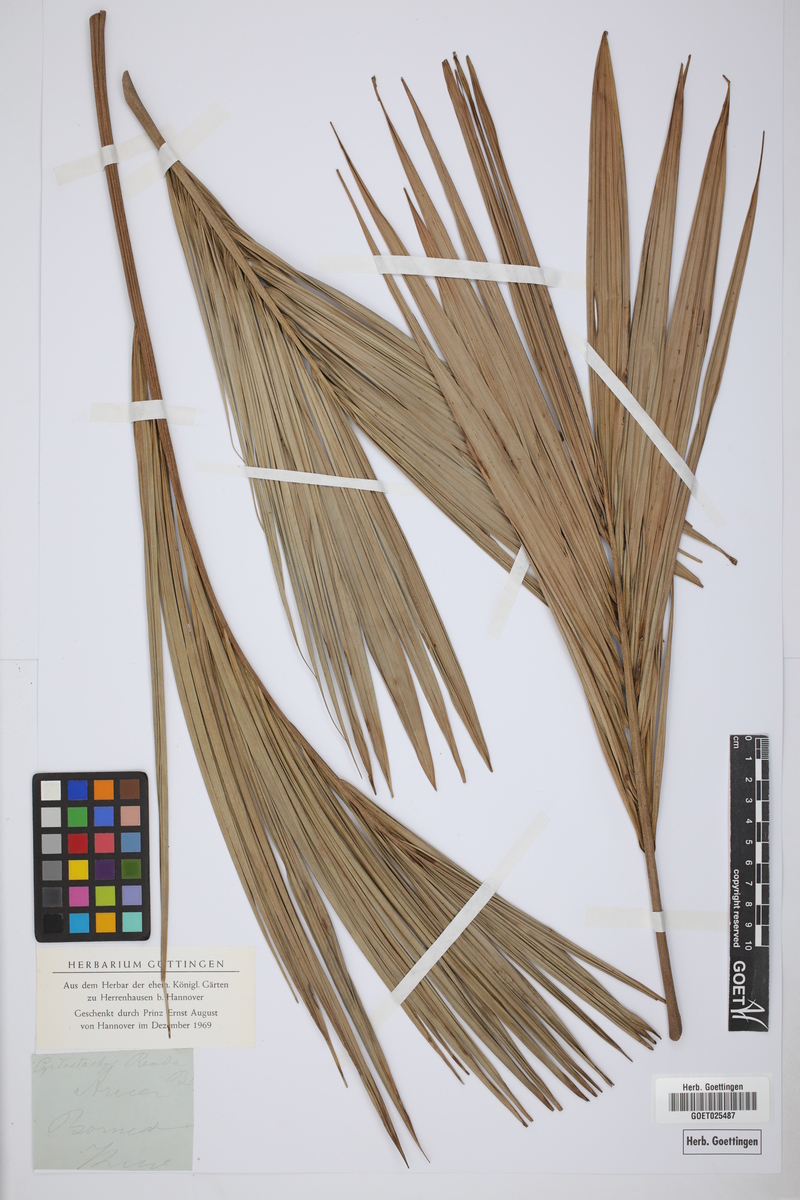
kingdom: Plantae
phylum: Tracheophyta
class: Liliopsida
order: Arecales
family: Arecaceae
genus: Cyrtostachys
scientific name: Cyrtostachys renda
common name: Lipstick palm
